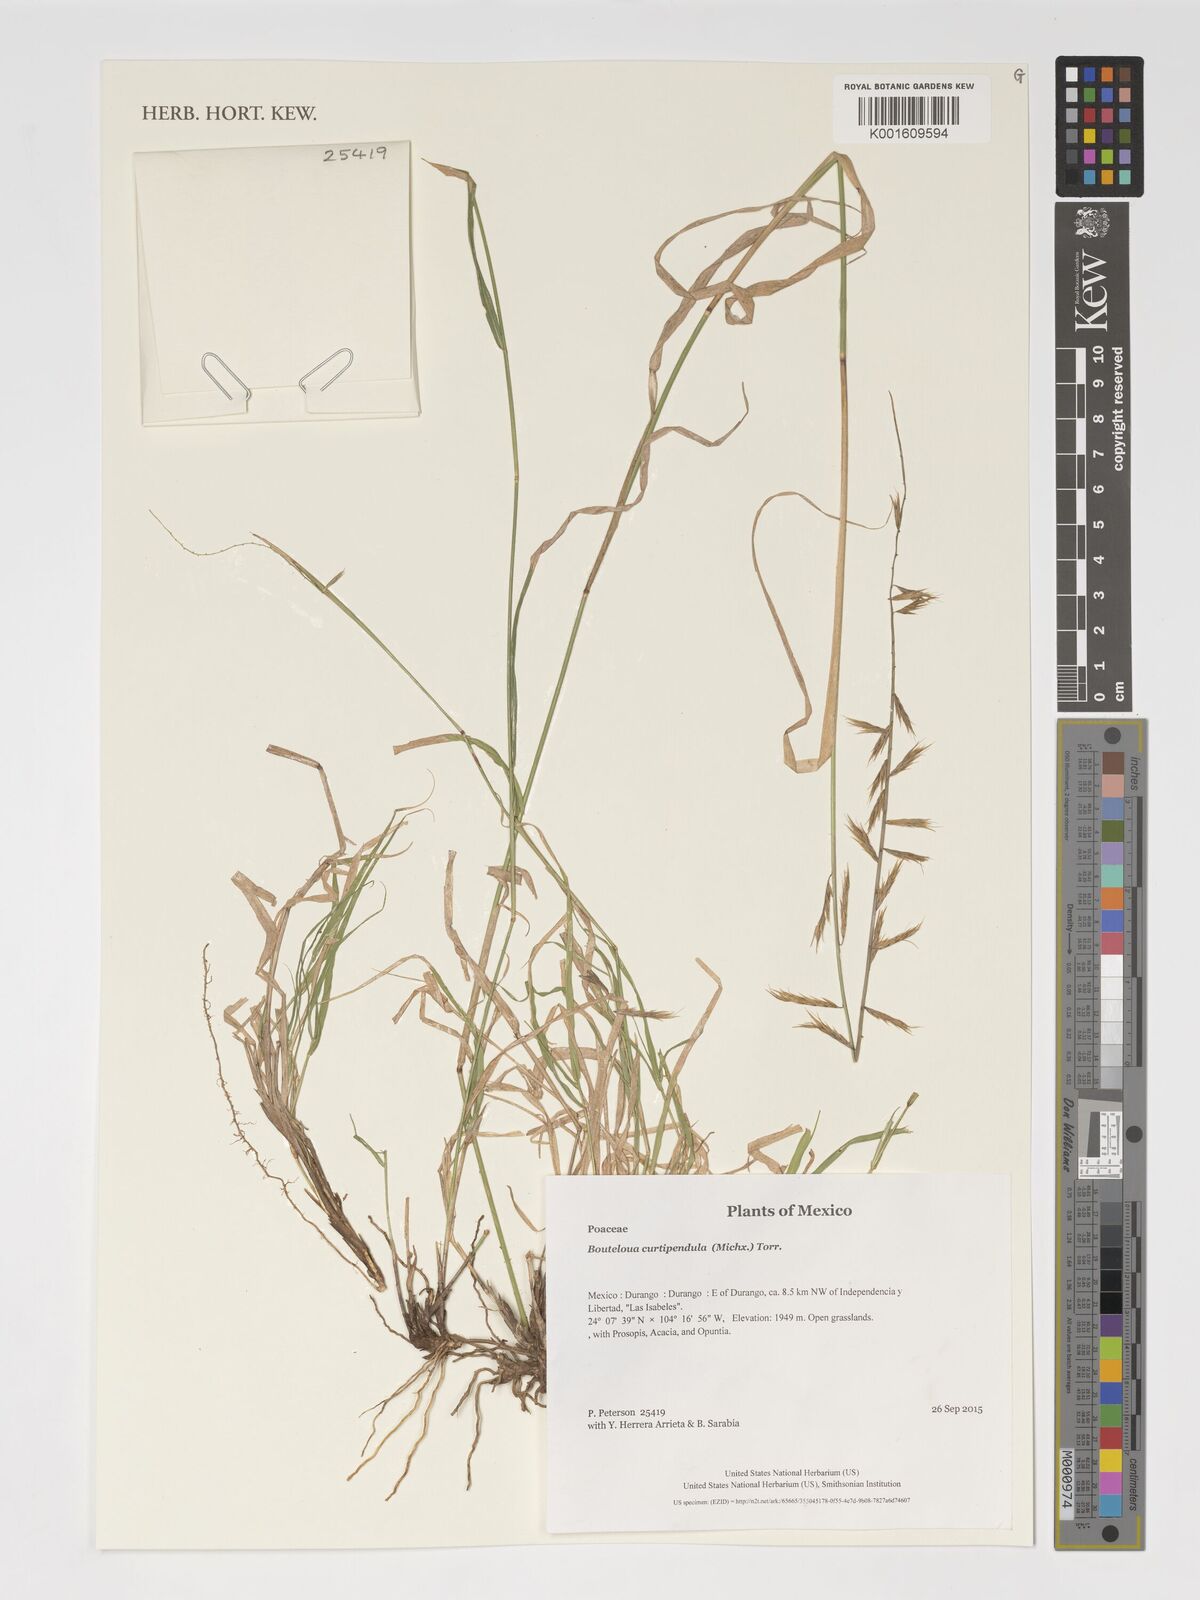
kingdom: Plantae
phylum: Tracheophyta
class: Liliopsida
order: Poales
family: Poaceae
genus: Bouteloua
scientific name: Bouteloua curtipendula
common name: Side-oats grama
